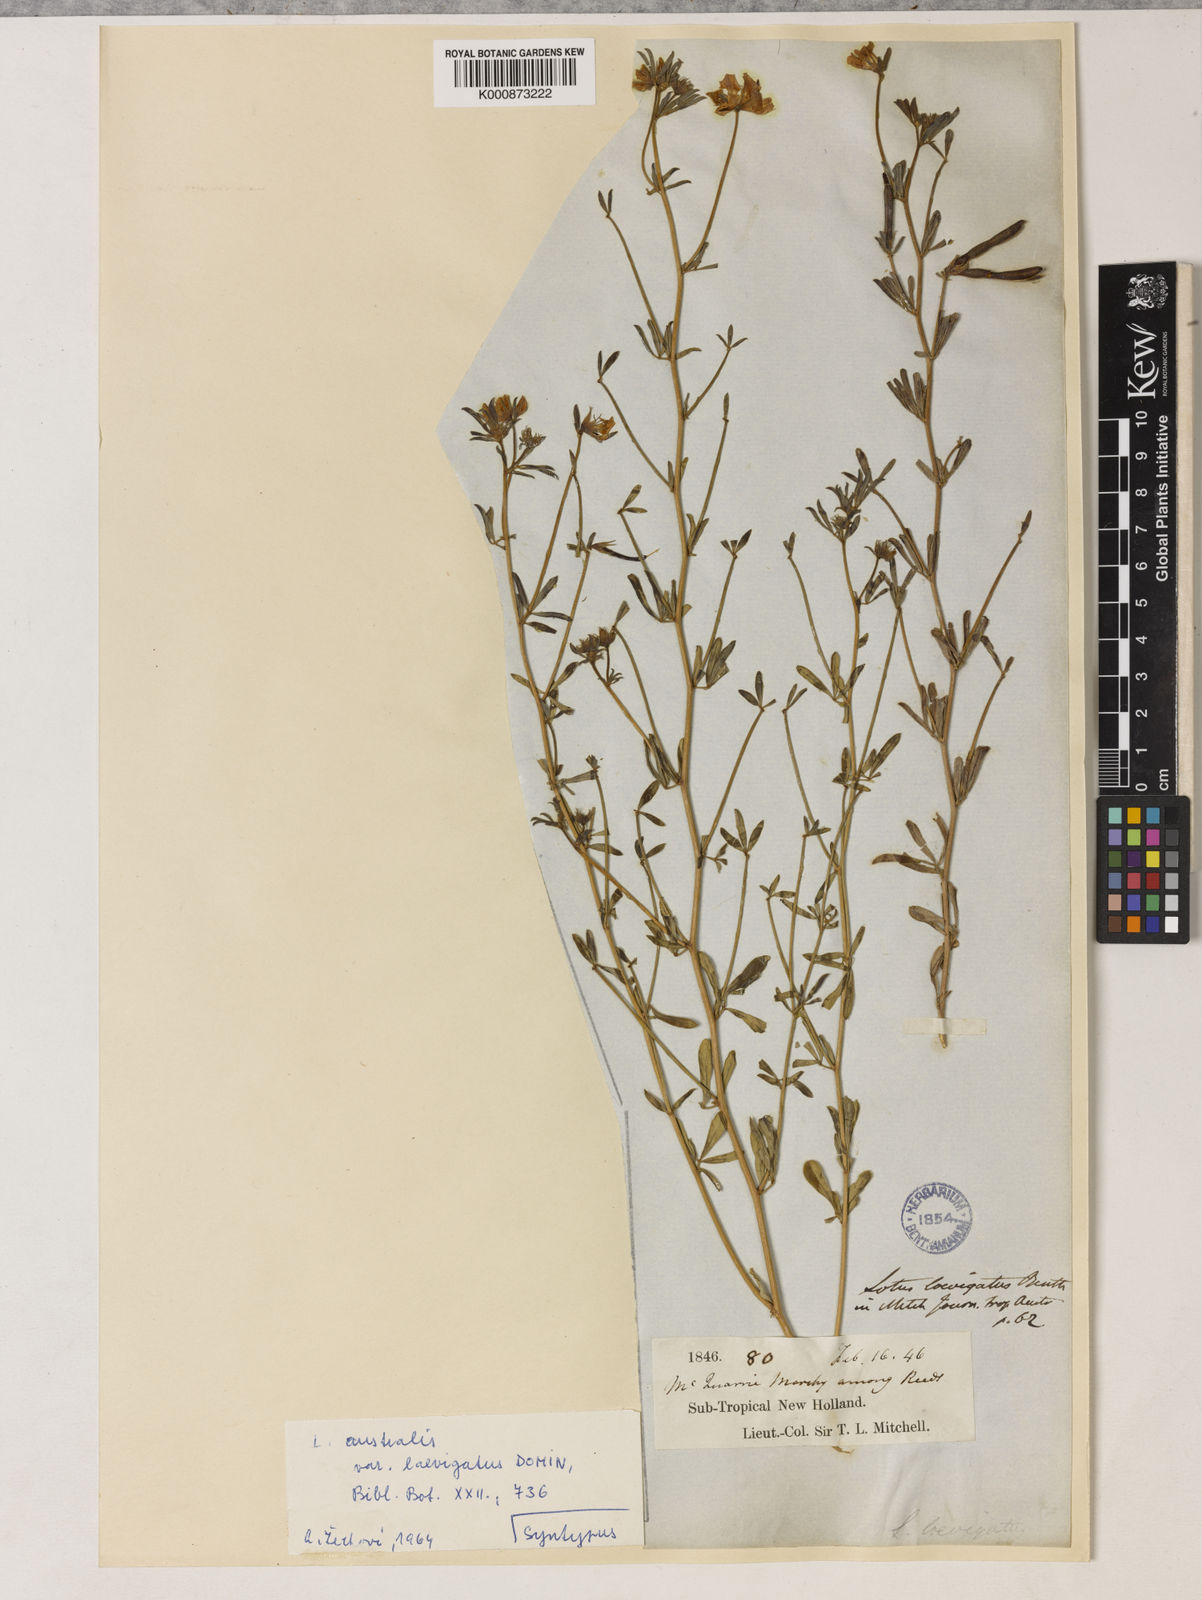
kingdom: Plantae
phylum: Tracheophyta
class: Magnoliopsida
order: Fabales
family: Fabaceae
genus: Lotus
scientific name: Lotus australis
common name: Australian trefoil
